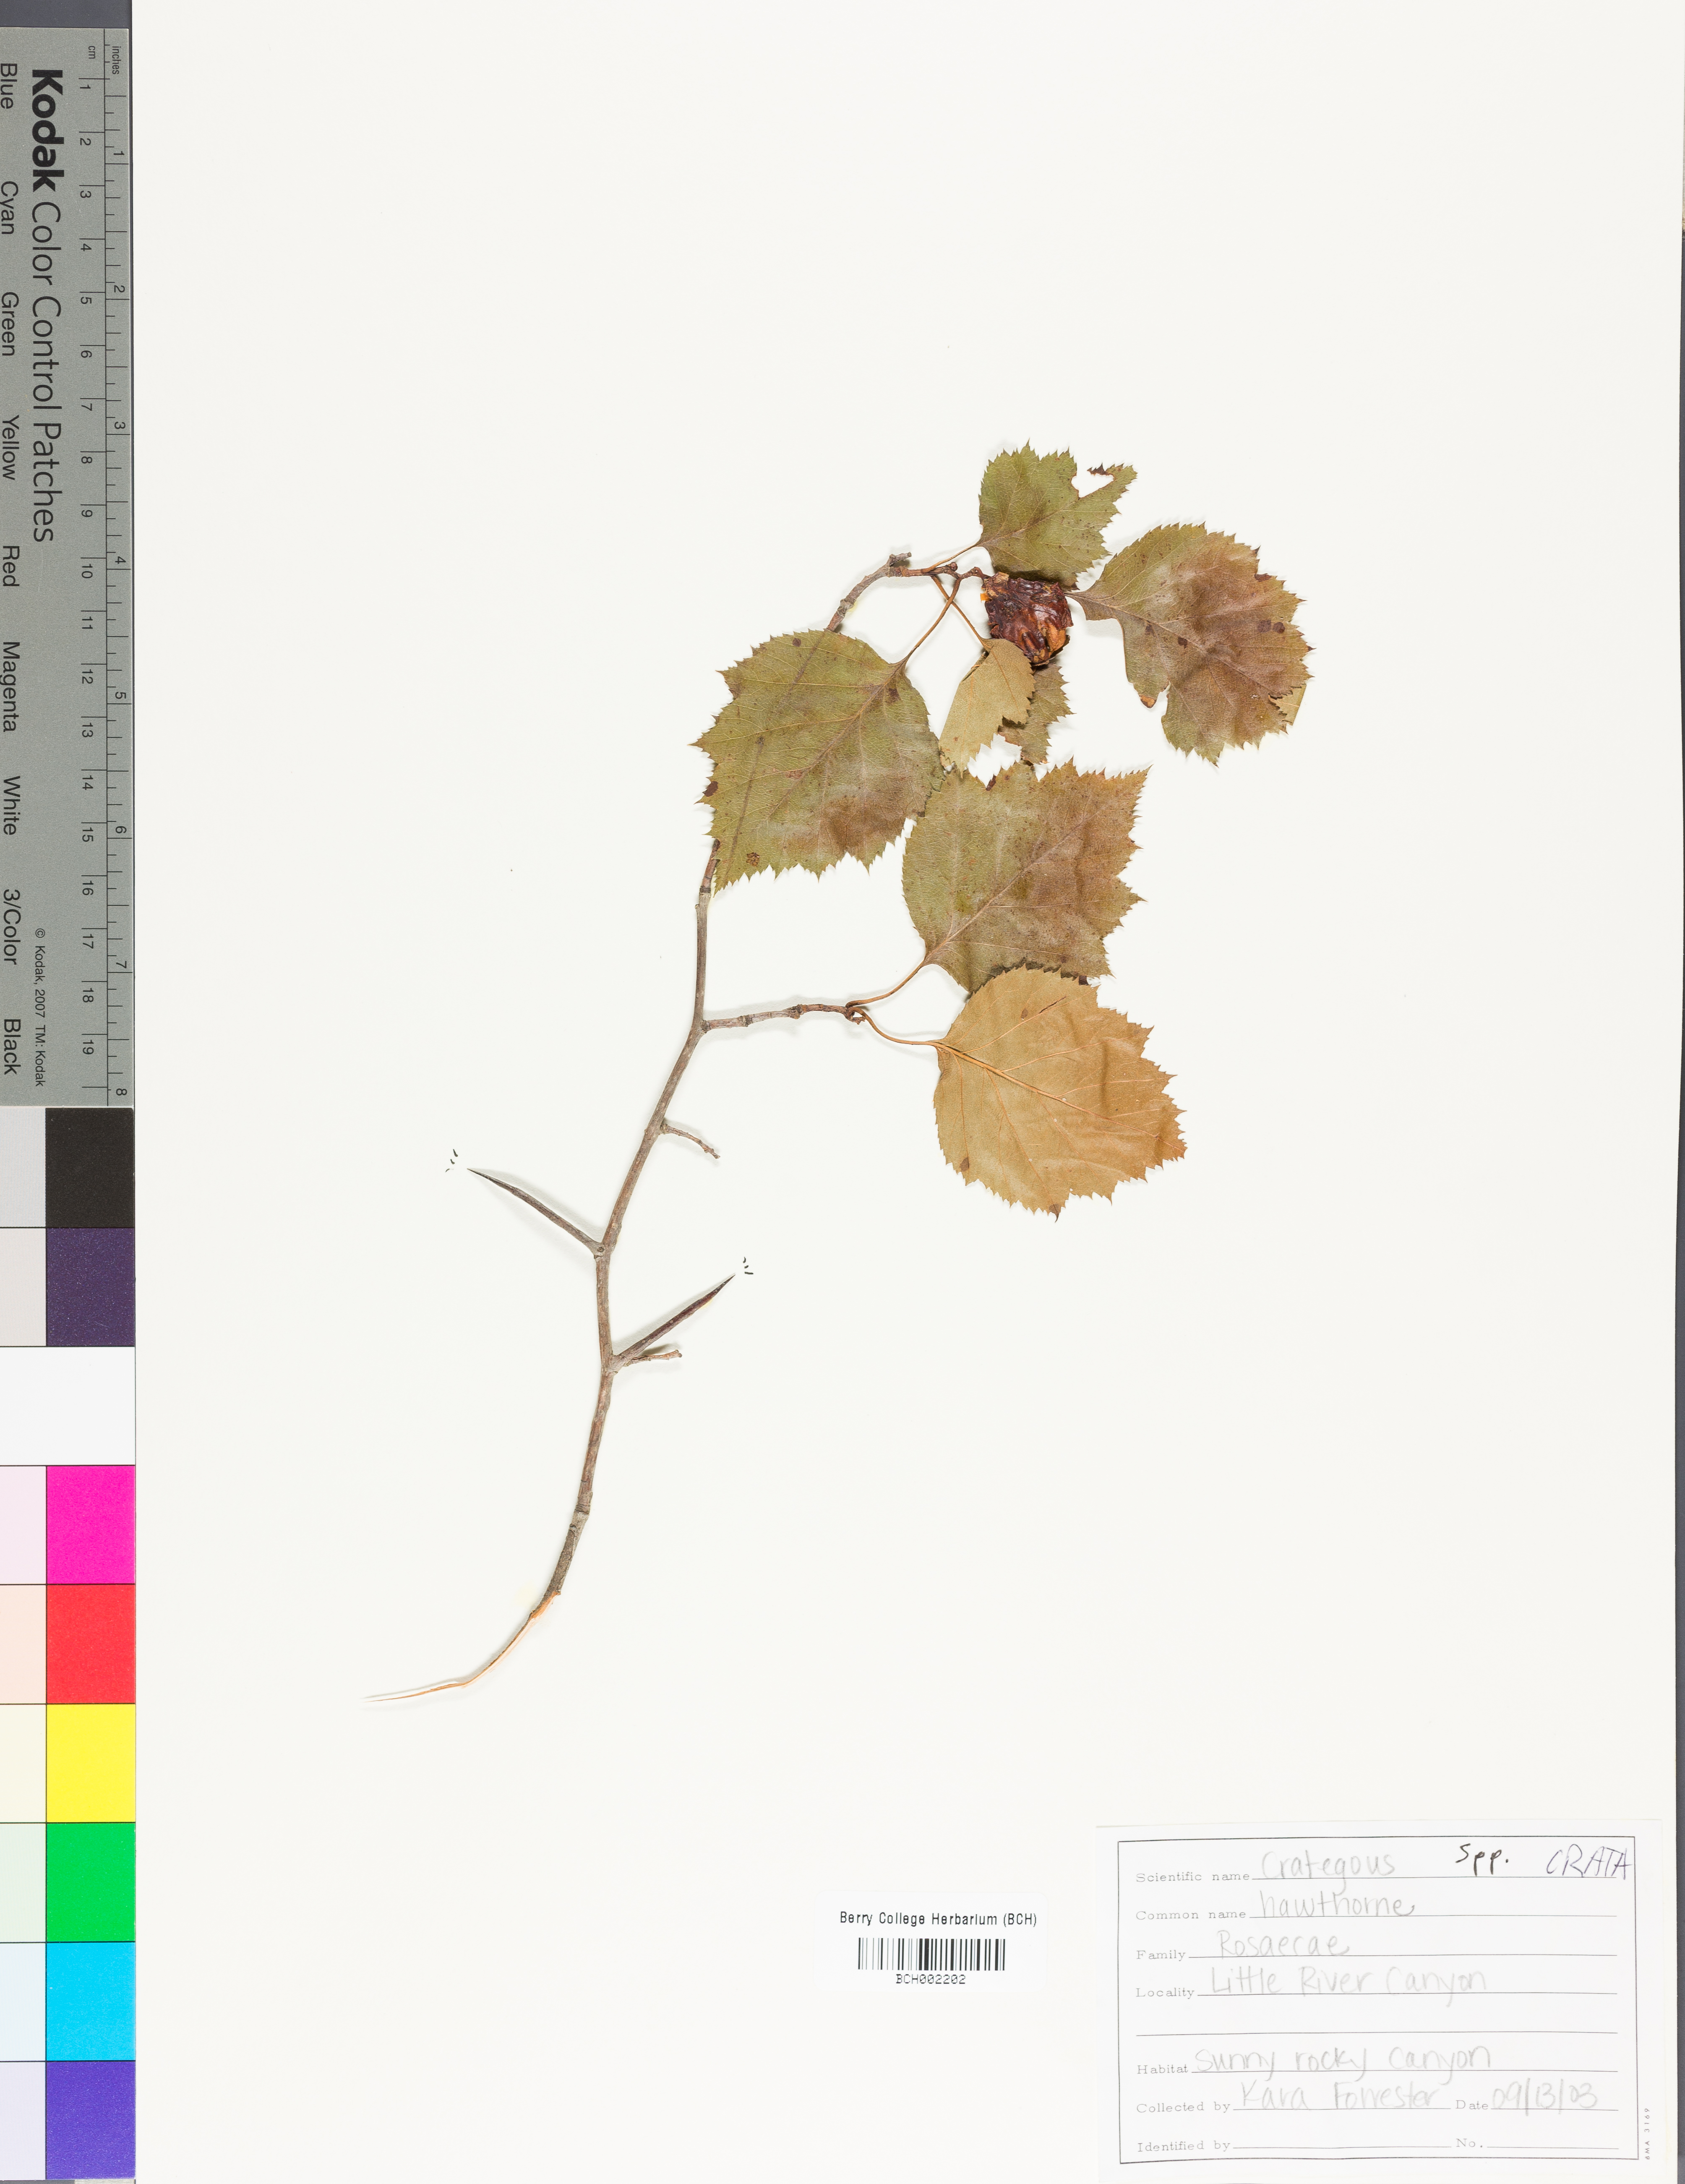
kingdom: Plantae
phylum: Tracheophyta
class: Magnoliopsida
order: Rosales
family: Rosaceae
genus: Crataegus
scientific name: Crataegus
